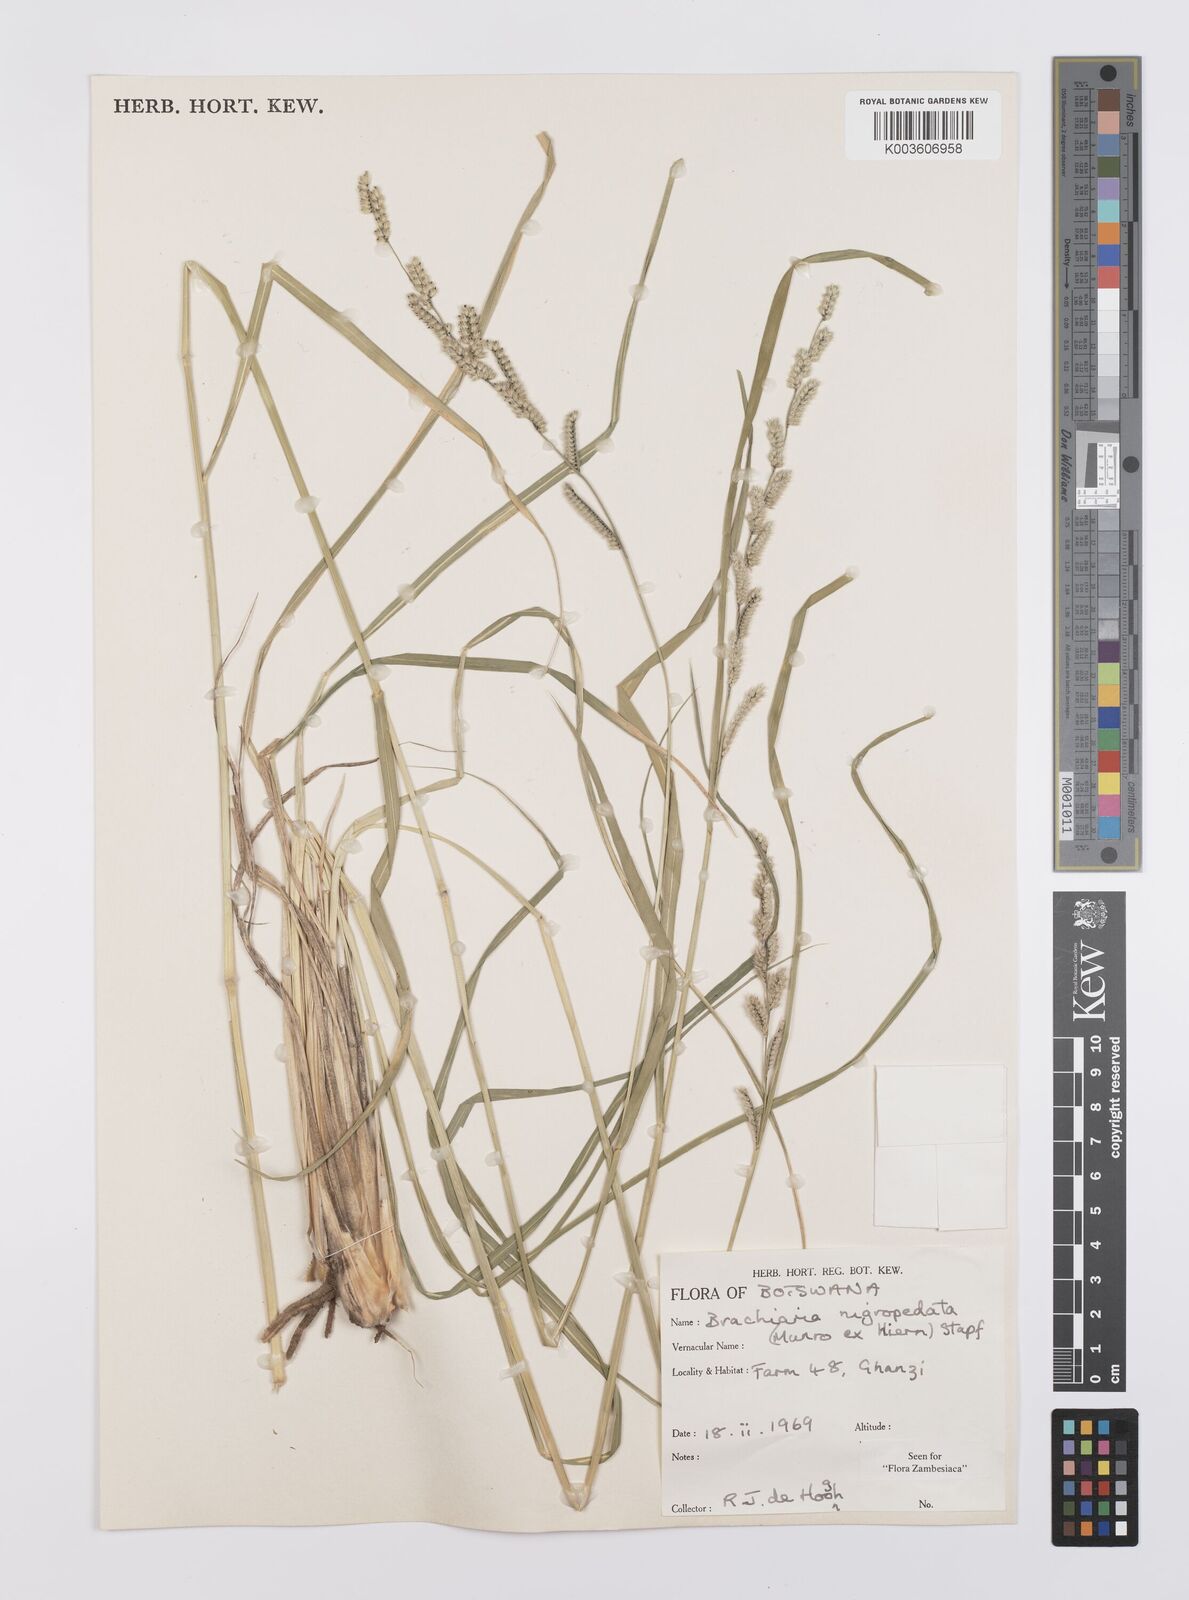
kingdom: Plantae
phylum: Tracheophyta
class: Liliopsida
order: Poales
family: Poaceae
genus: Urochloa
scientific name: Urochloa nigropedata
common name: Spotted signal grass
